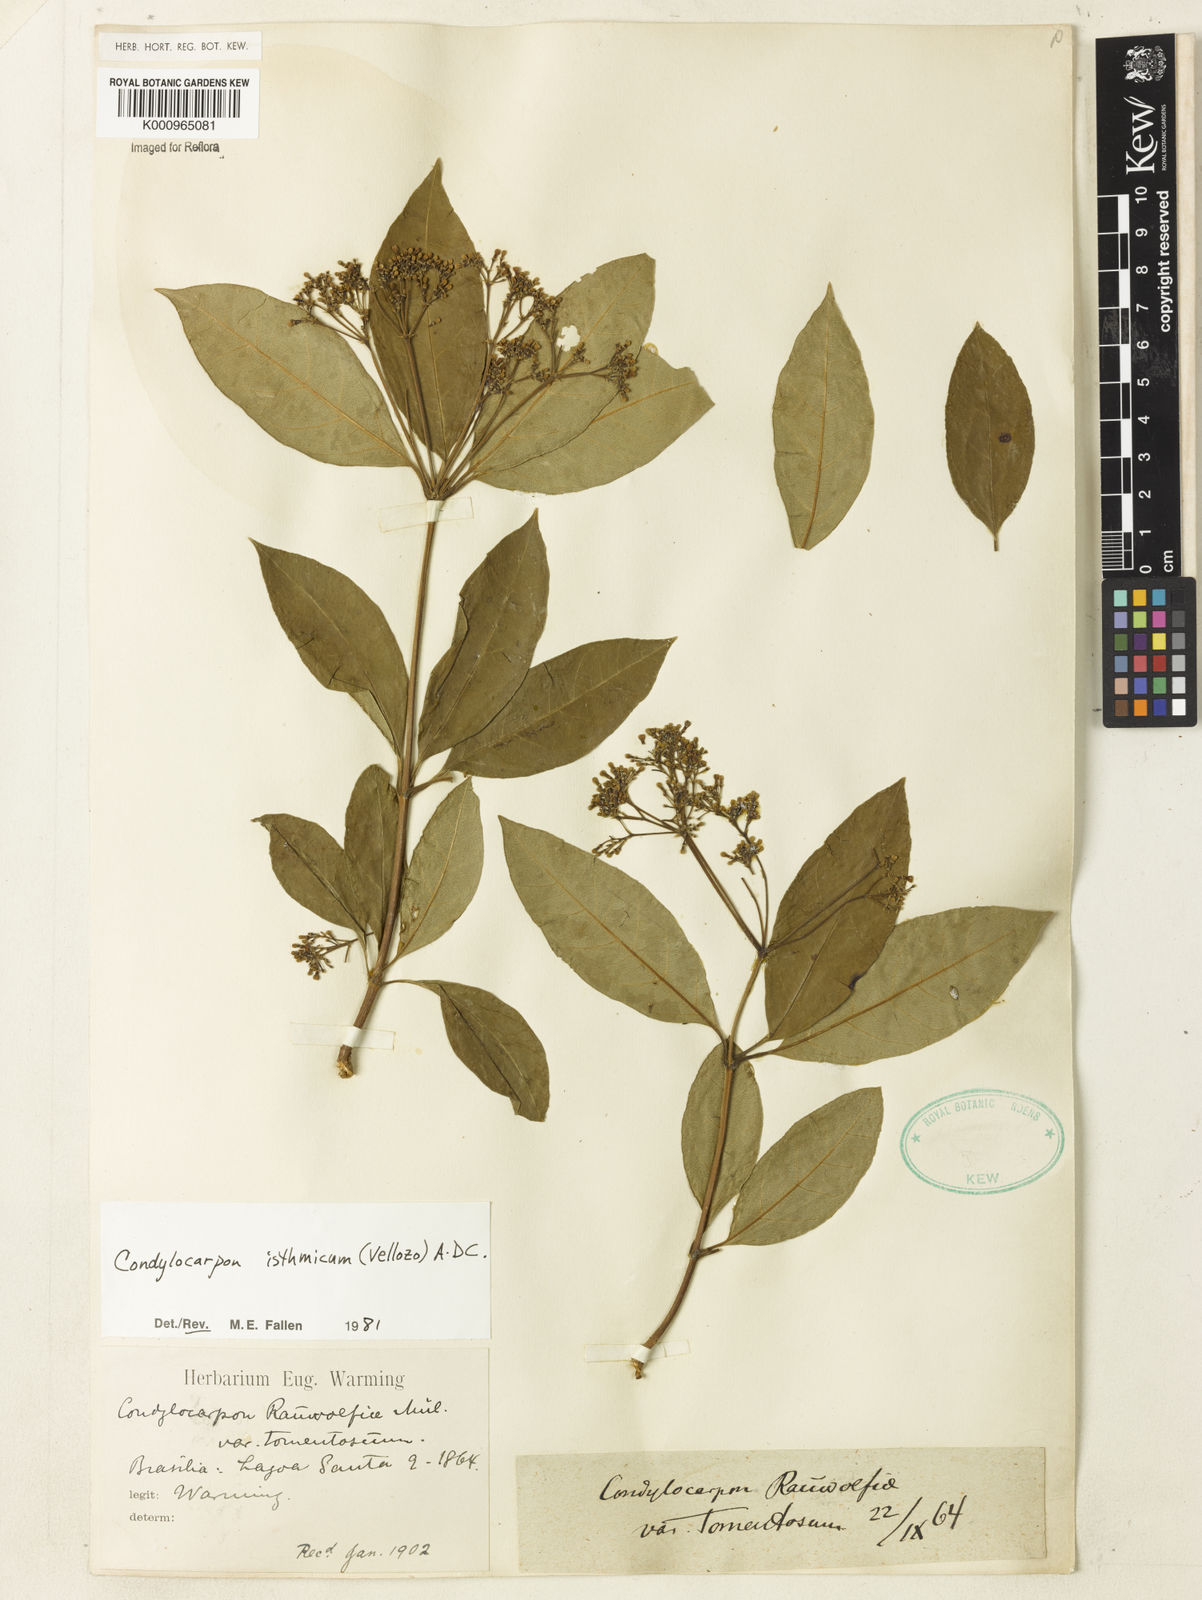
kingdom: Plantae
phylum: Tracheophyta
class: Magnoliopsida
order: Gentianales
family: Apocynaceae
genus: Condylocarpon
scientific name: Condylocarpon isthmicum
